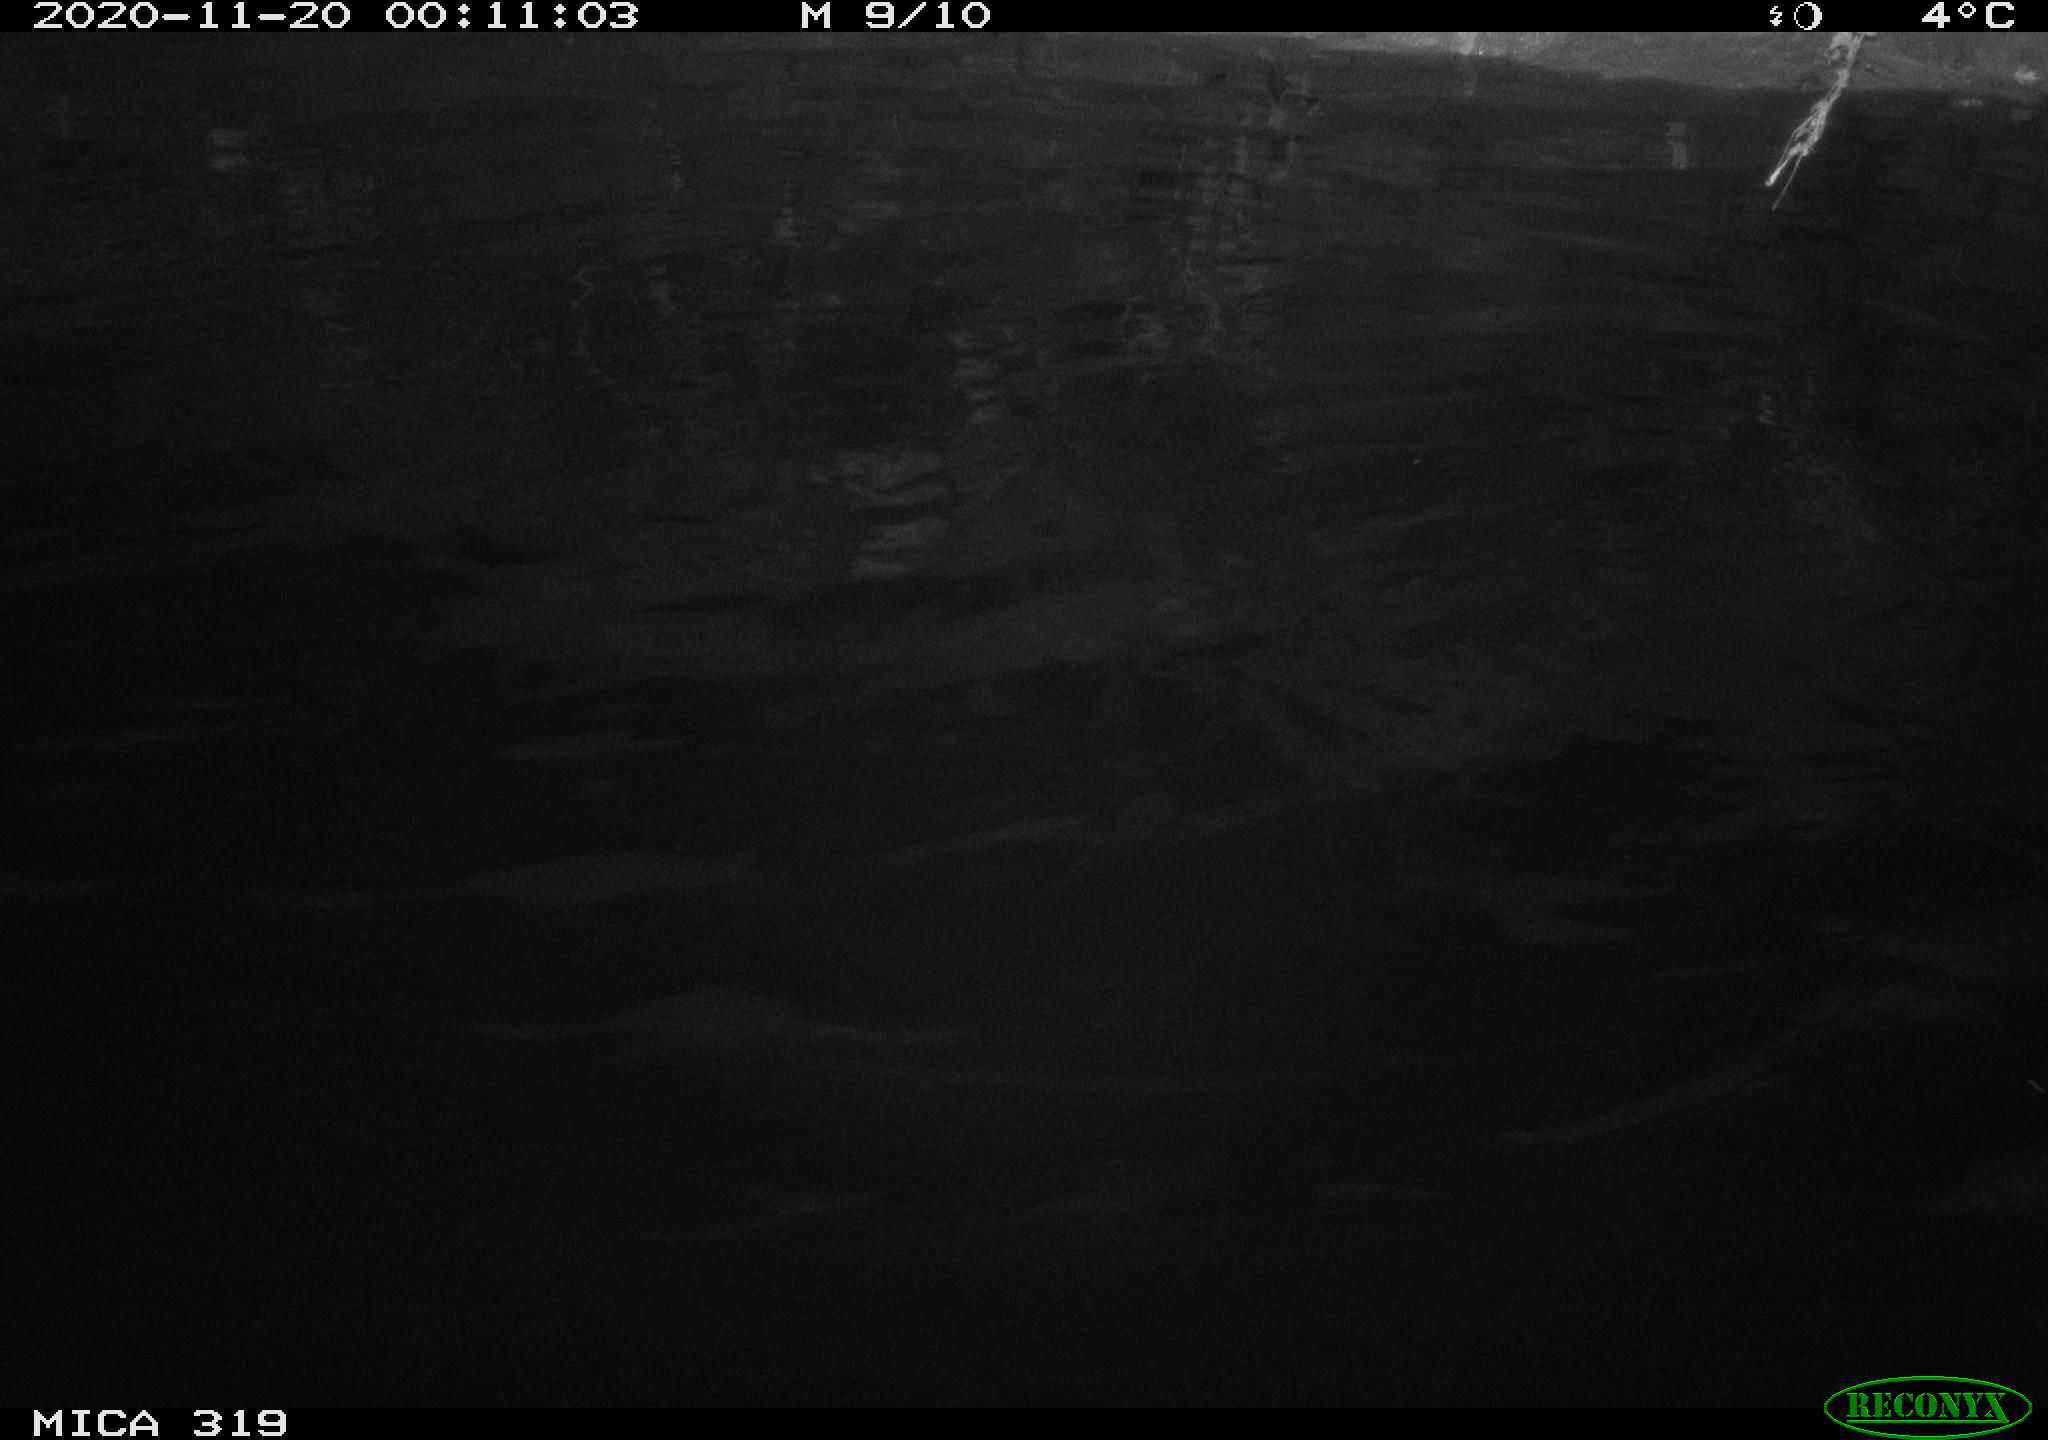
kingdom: Animalia
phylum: Chordata
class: Aves
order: Anseriformes
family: Anatidae
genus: Anas
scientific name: Anas platyrhynchos
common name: Mallard
